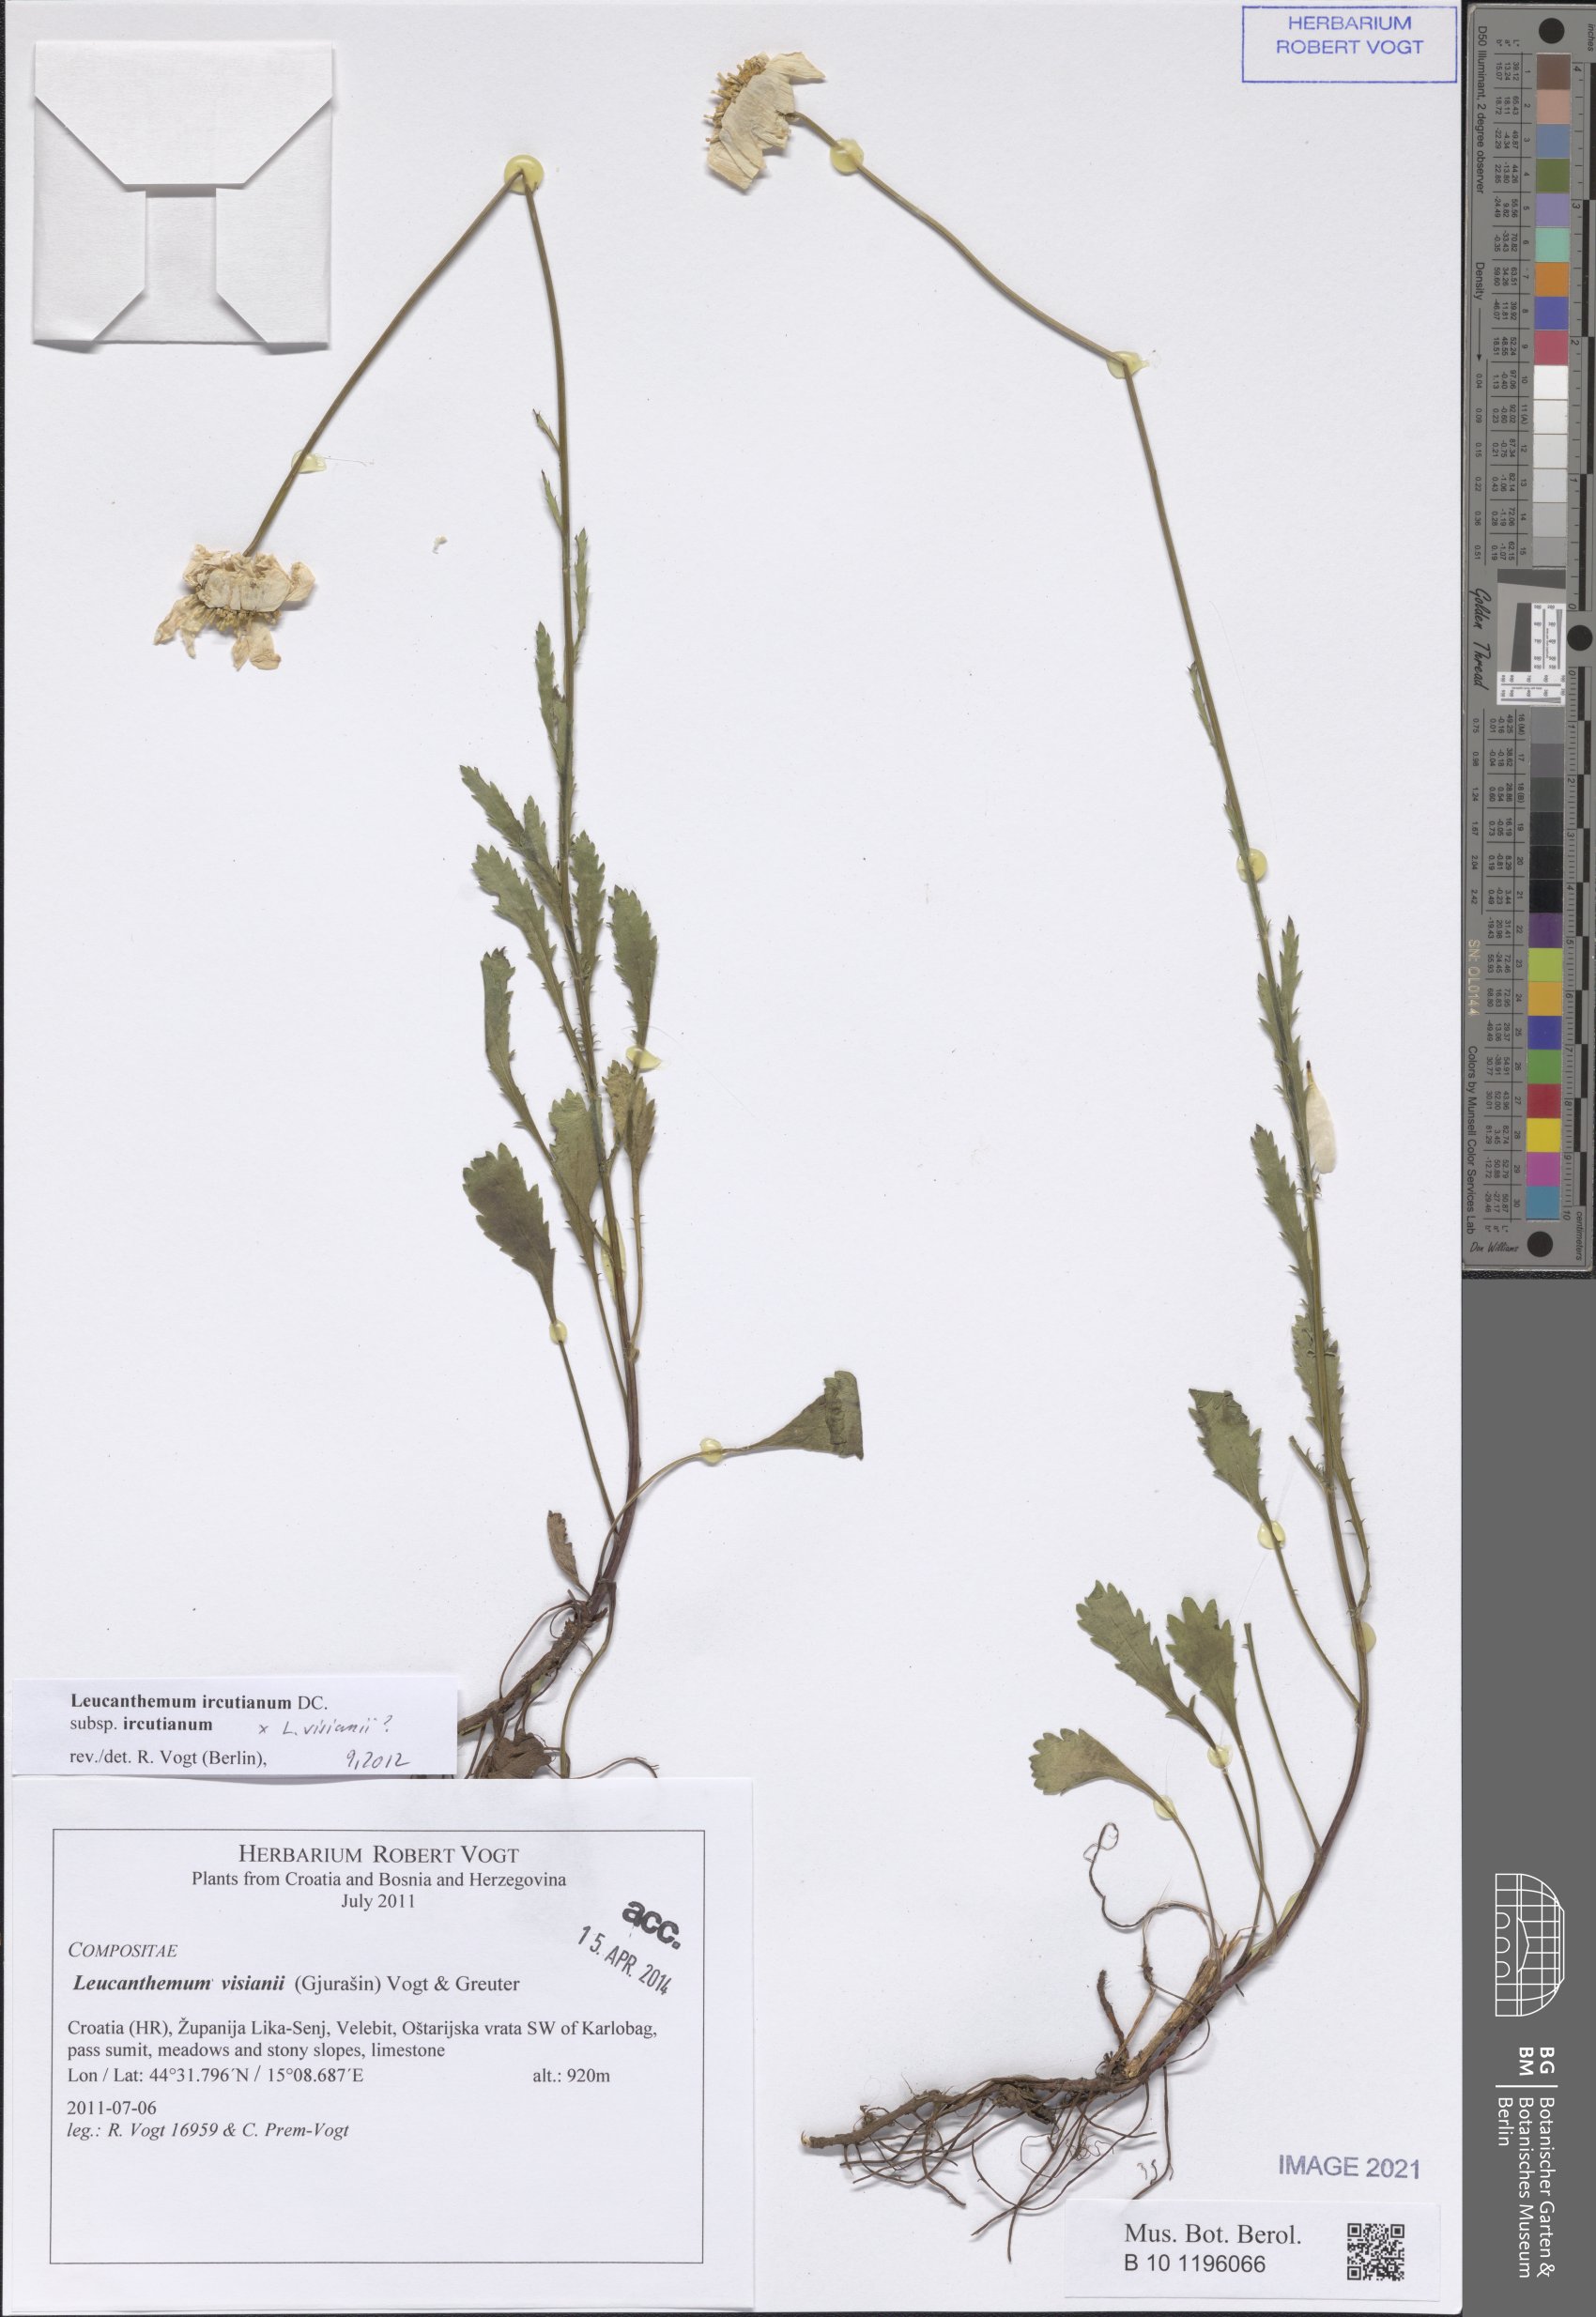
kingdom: Plantae
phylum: Tracheophyta
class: Magnoliopsida
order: Asterales
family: Asteraceae
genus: Leucanthemum
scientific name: Leucanthemum ircutianum
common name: Daisy
